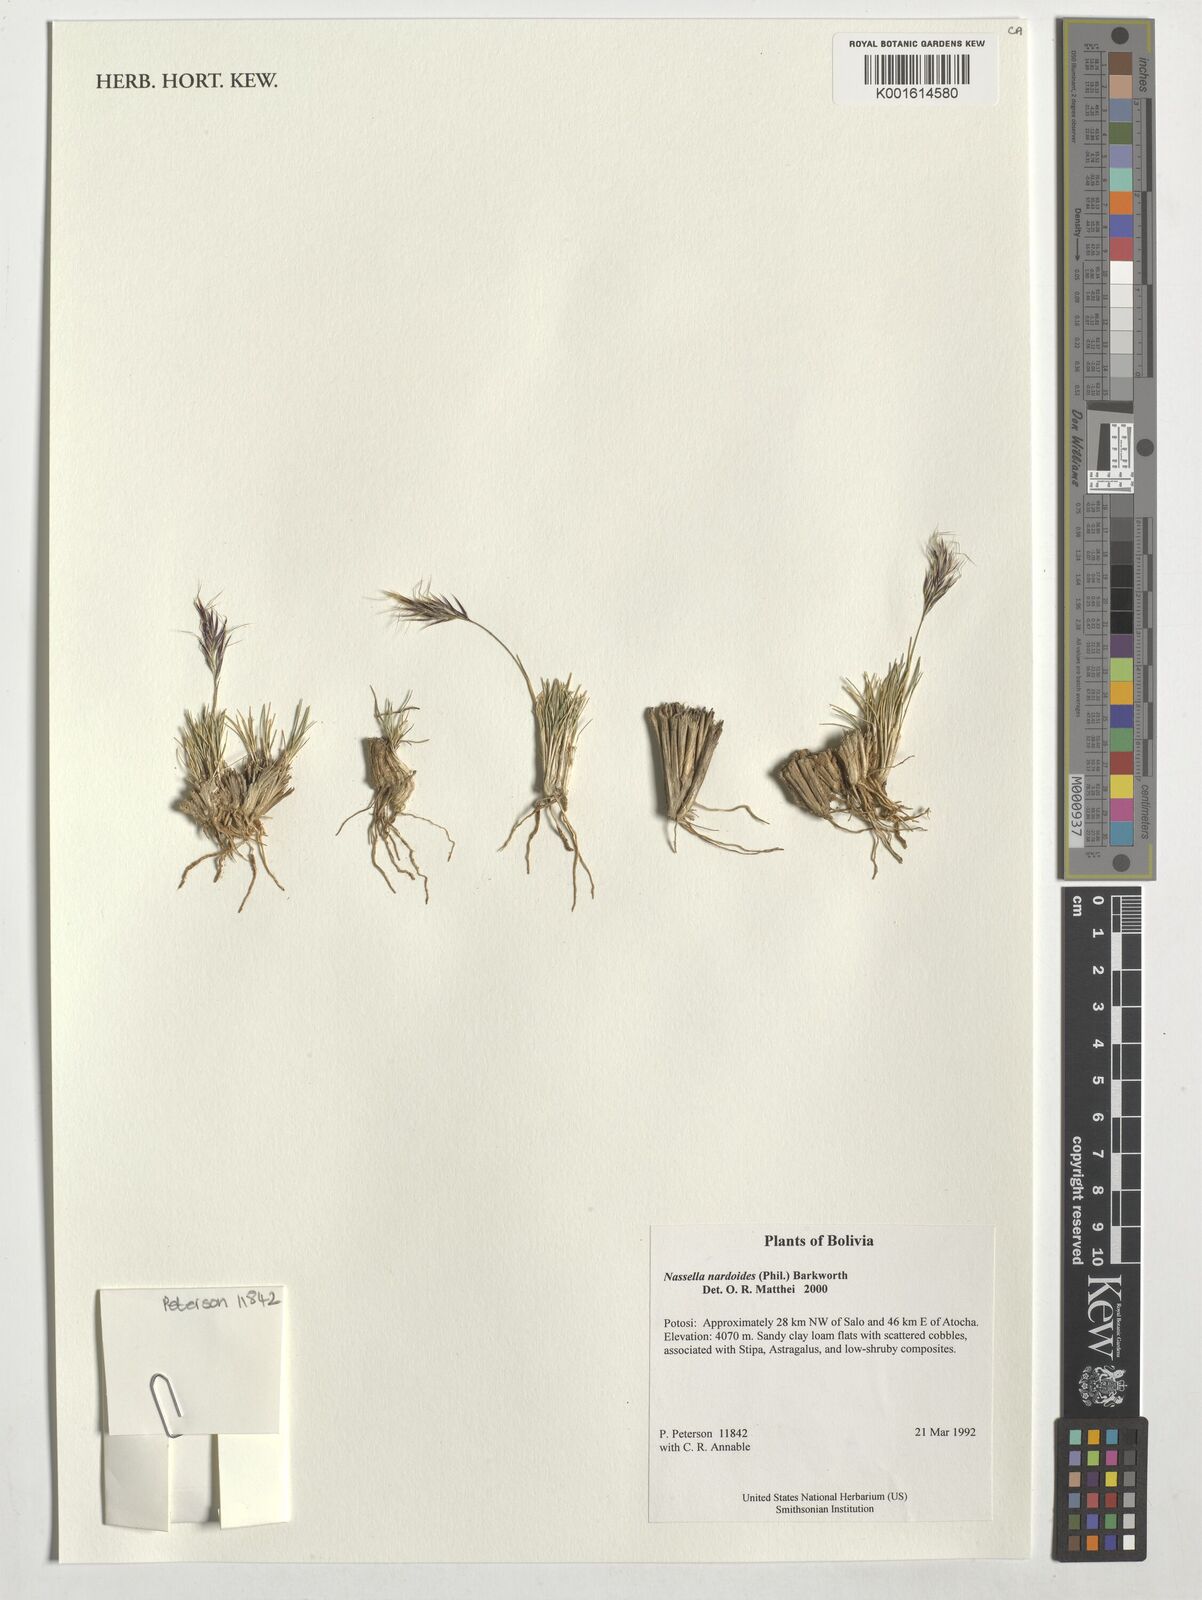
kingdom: Plantae
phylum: Tracheophyta
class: Liliopsida
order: Poales
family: Poaceae
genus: Nassella
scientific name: Nassella nardoides
